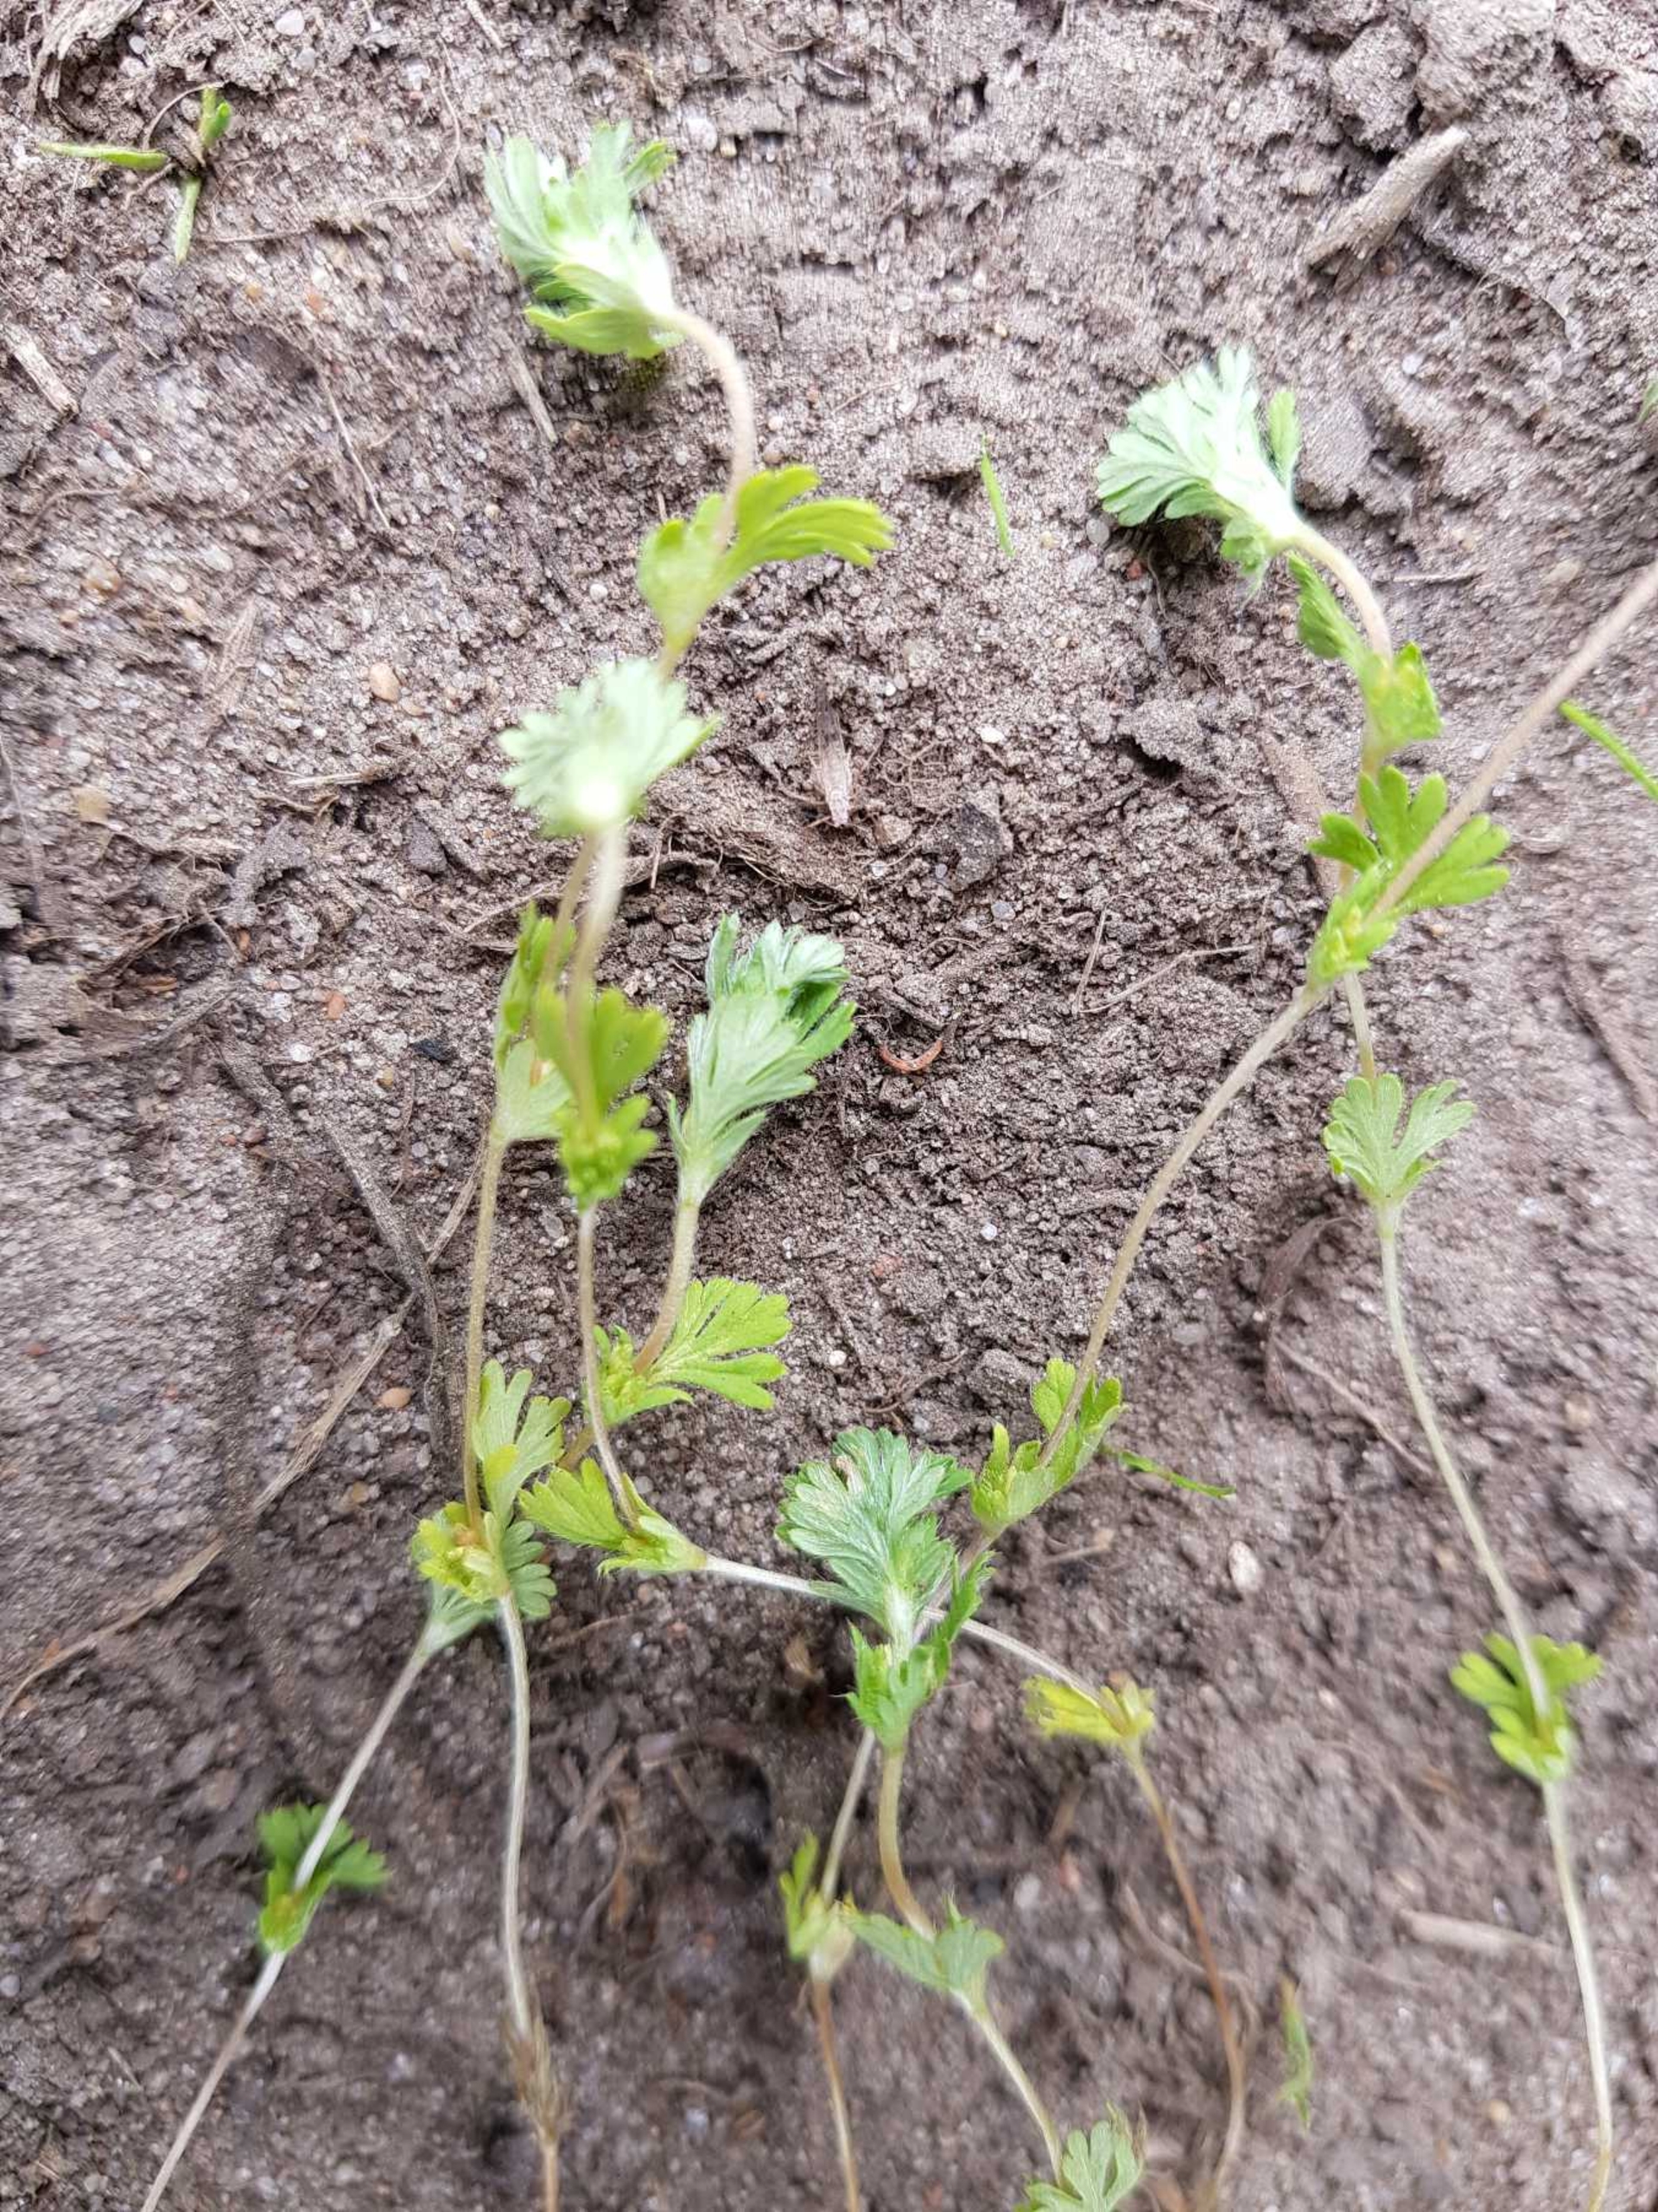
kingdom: Plantae
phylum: Tracheophyta
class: Magnoliopsida
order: Rosales
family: Rosaceae
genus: Aphanes
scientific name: Aphanes australis
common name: Småfrugtet dværgløvefod
